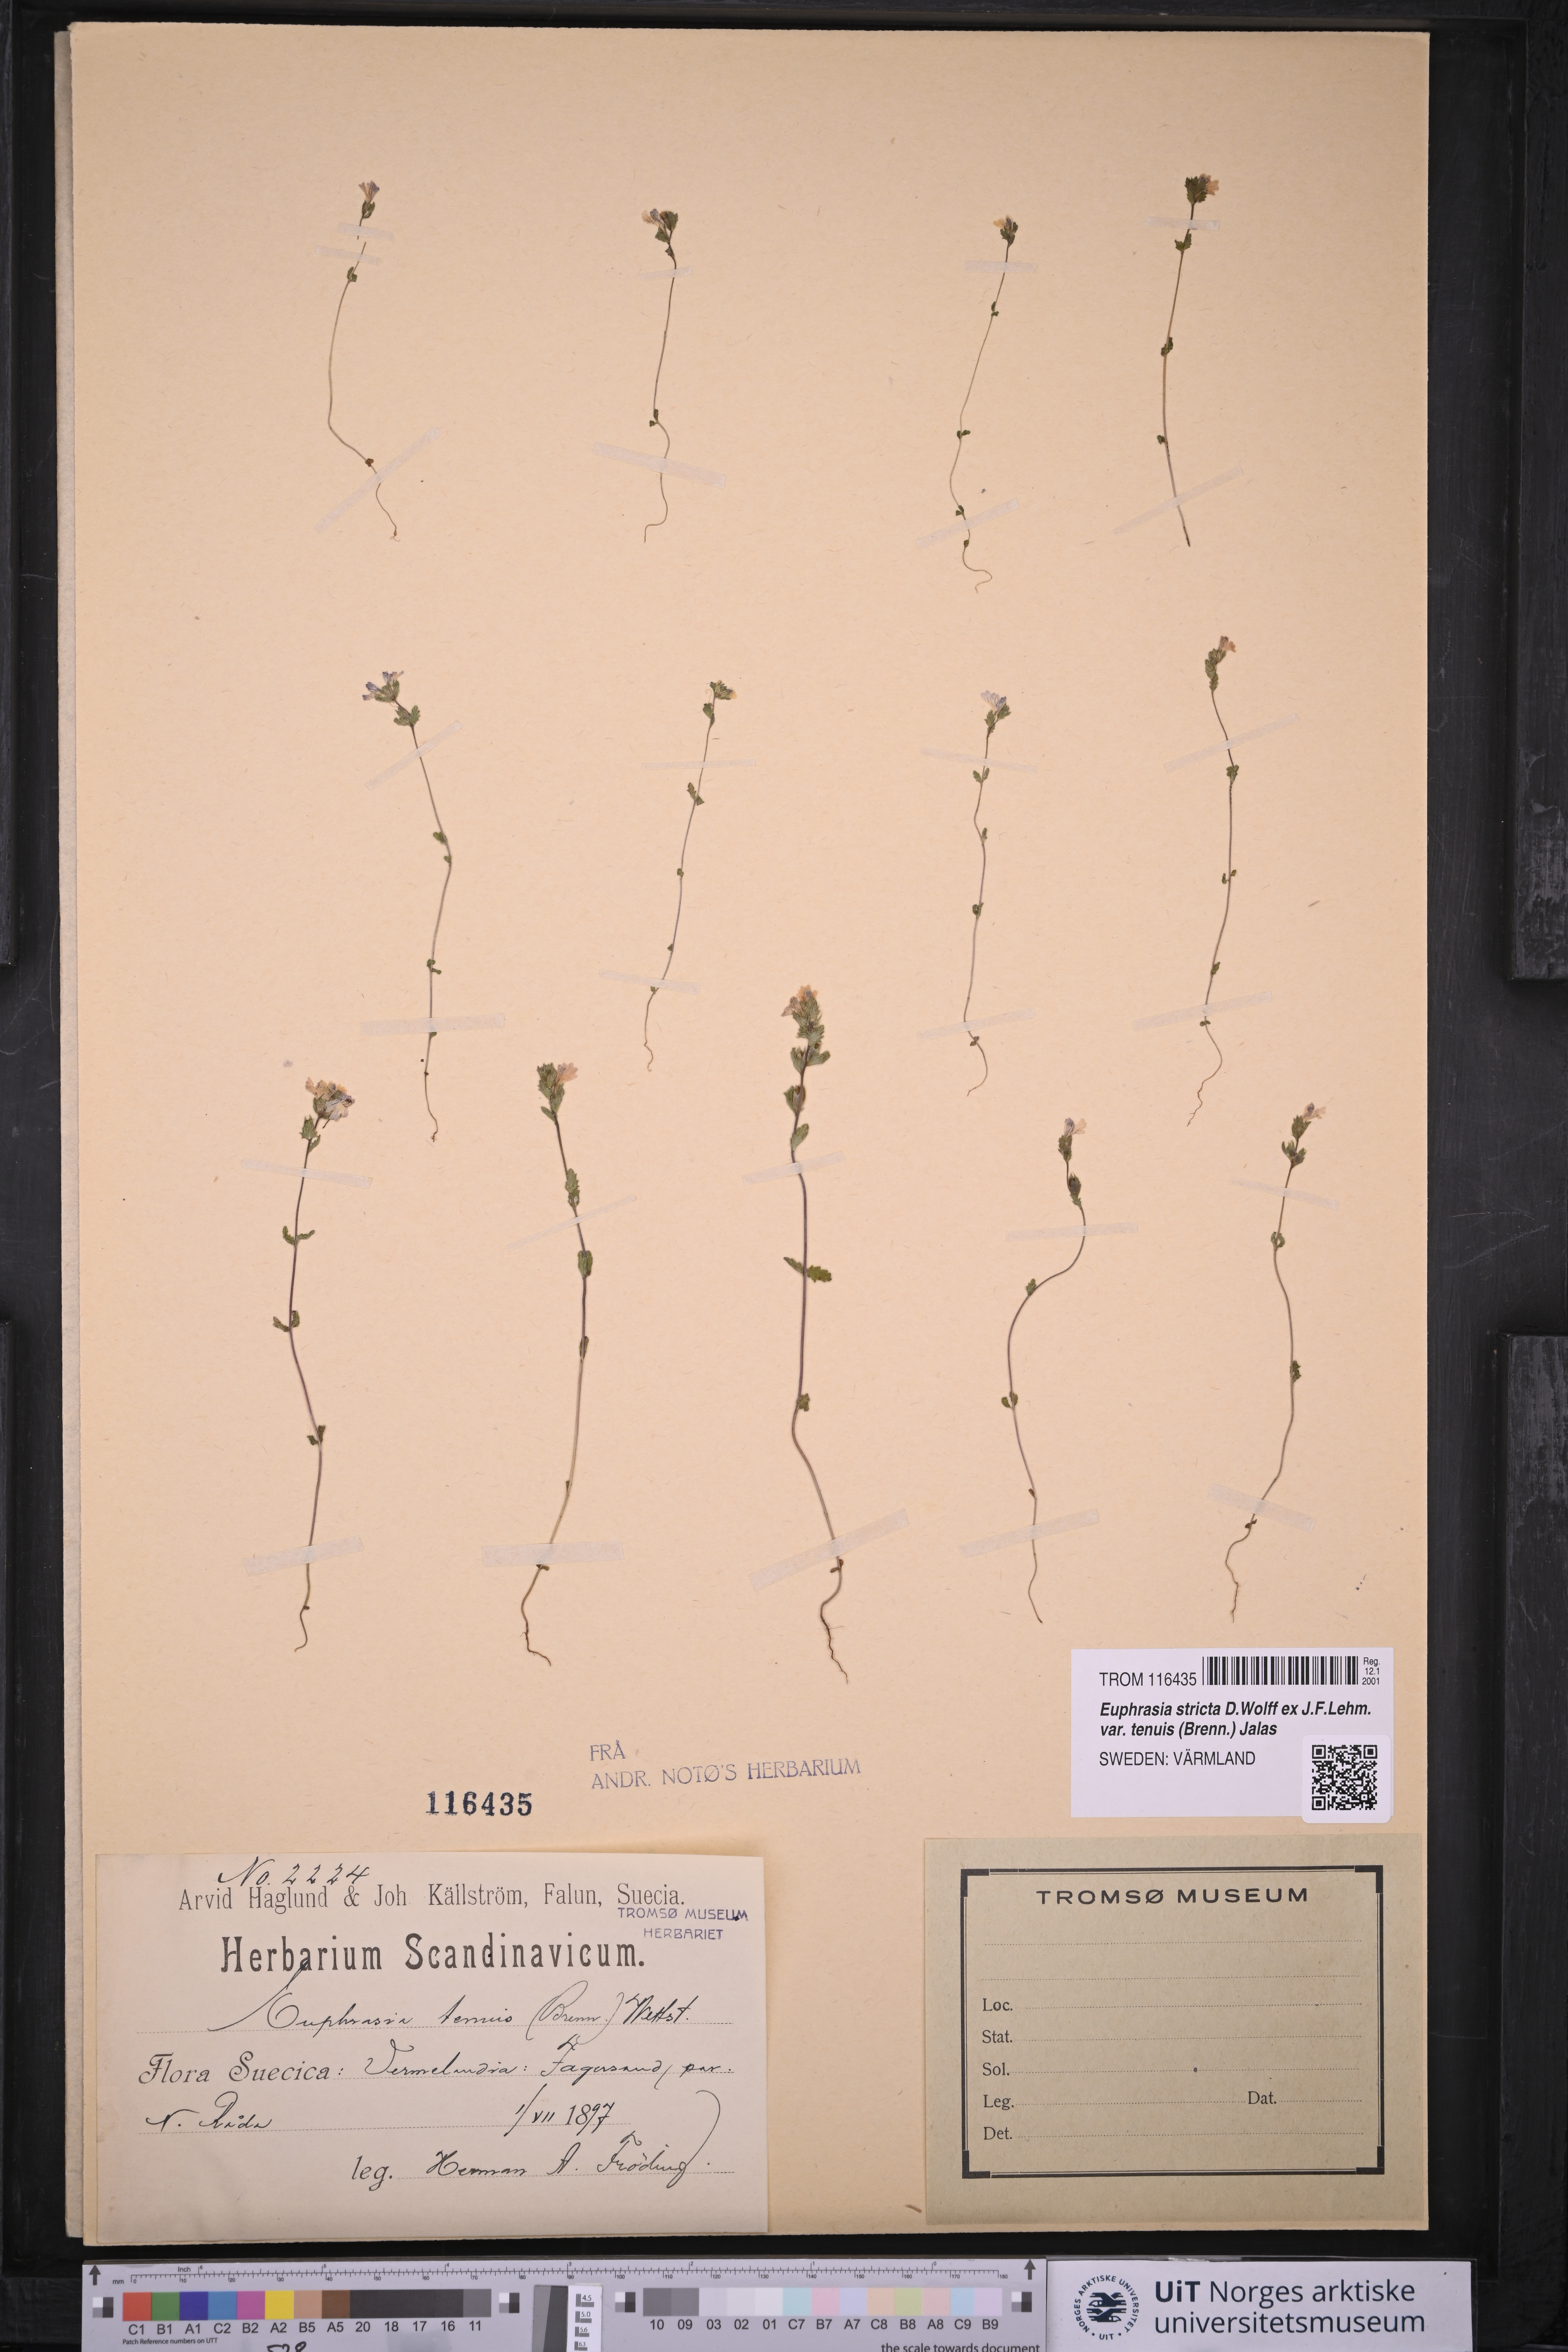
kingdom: Plantae
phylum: Tracheophyta
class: Magnoliopsida
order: Lamiales
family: Orobanchaceae
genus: Euphrasia
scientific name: Euphrasia vernalis
